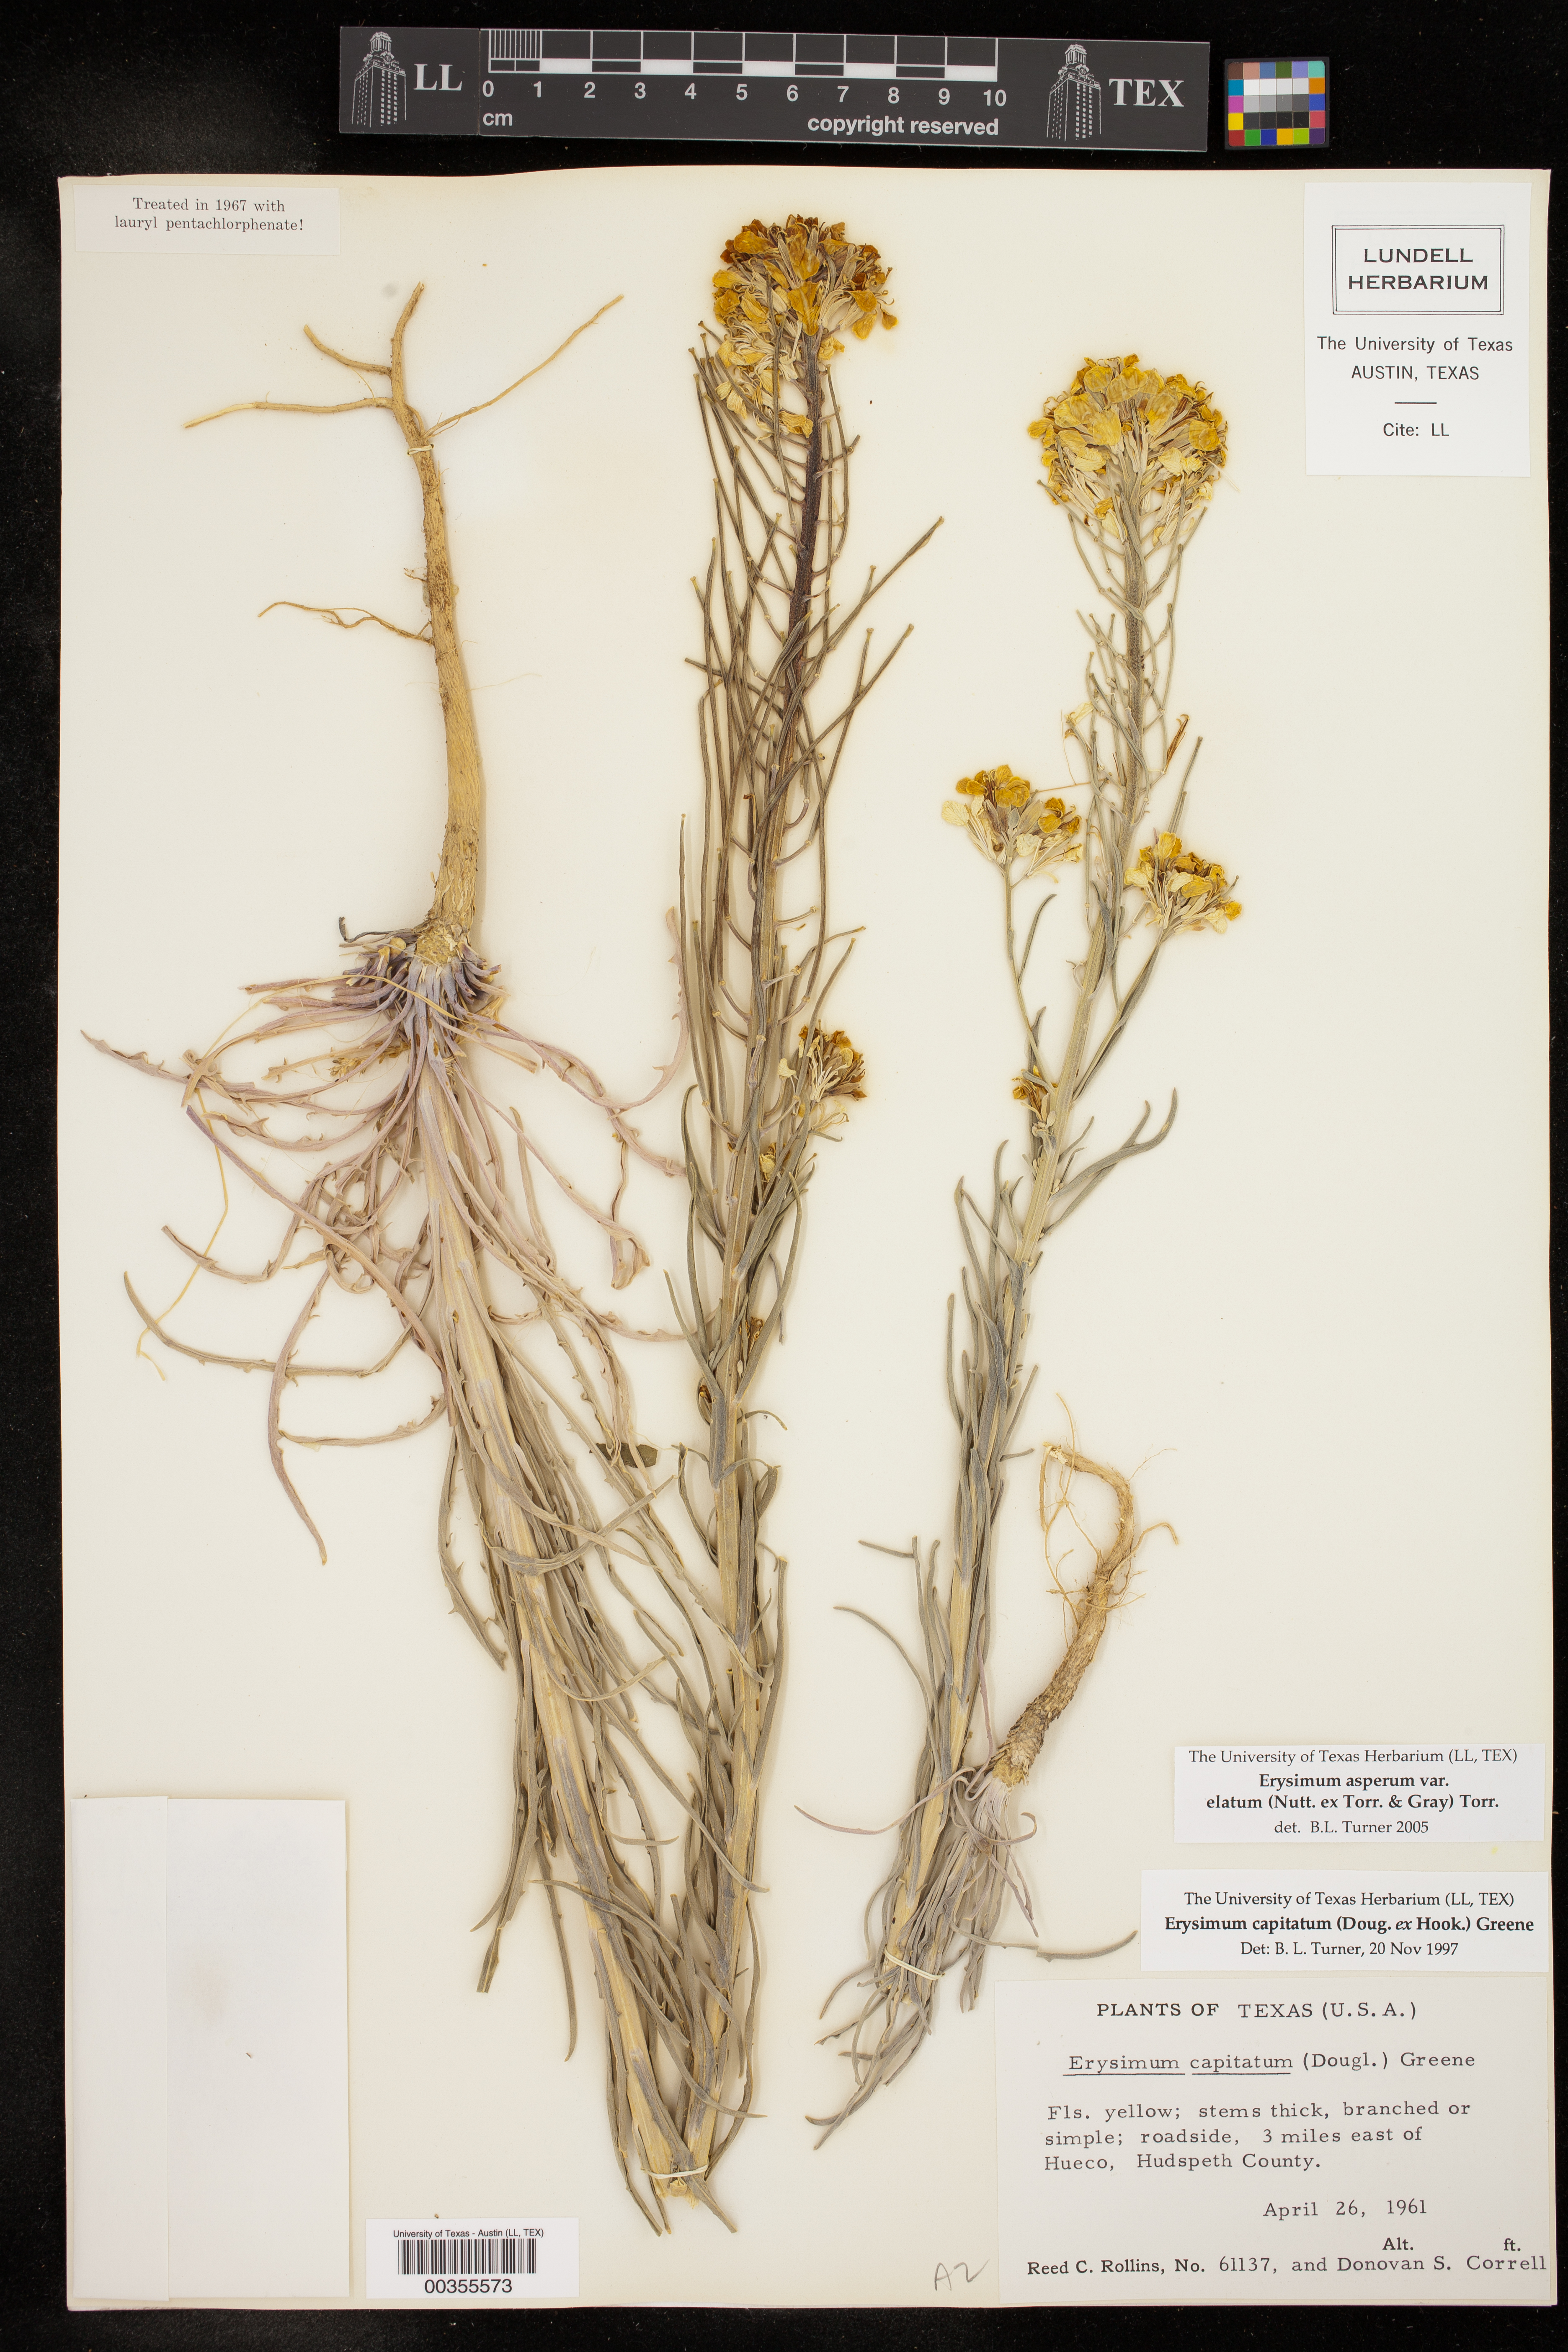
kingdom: Plantae
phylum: Tracheophyta
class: Magnoliopsida
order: Brassicales
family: Brassicaceae
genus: Erysimum
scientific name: Erysimum capitatum
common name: Western wallflower
